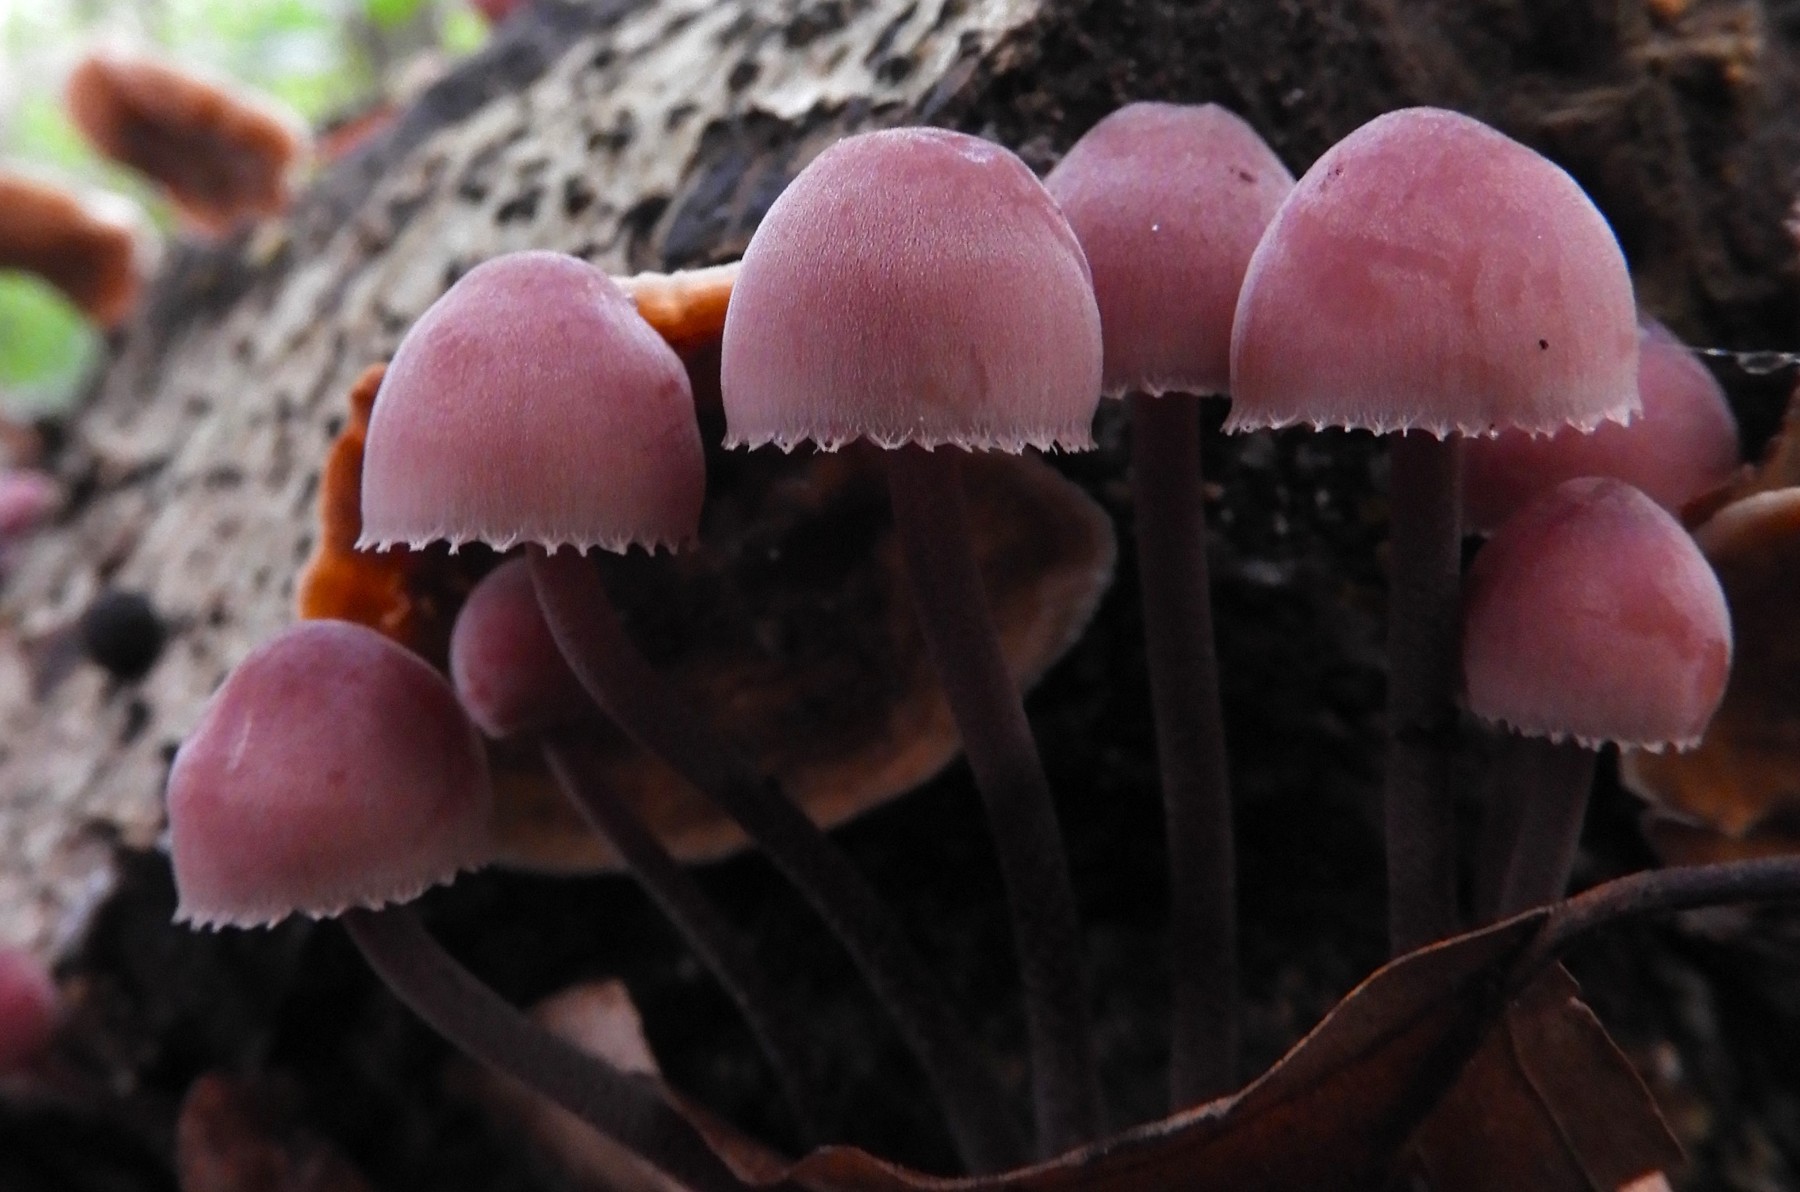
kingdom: Fungi
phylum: Basidiomycota
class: Agaricomycetes
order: Agaricales
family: Mycenaceae
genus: Mycena
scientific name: Mycena haematopus
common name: blødende huesvamp
